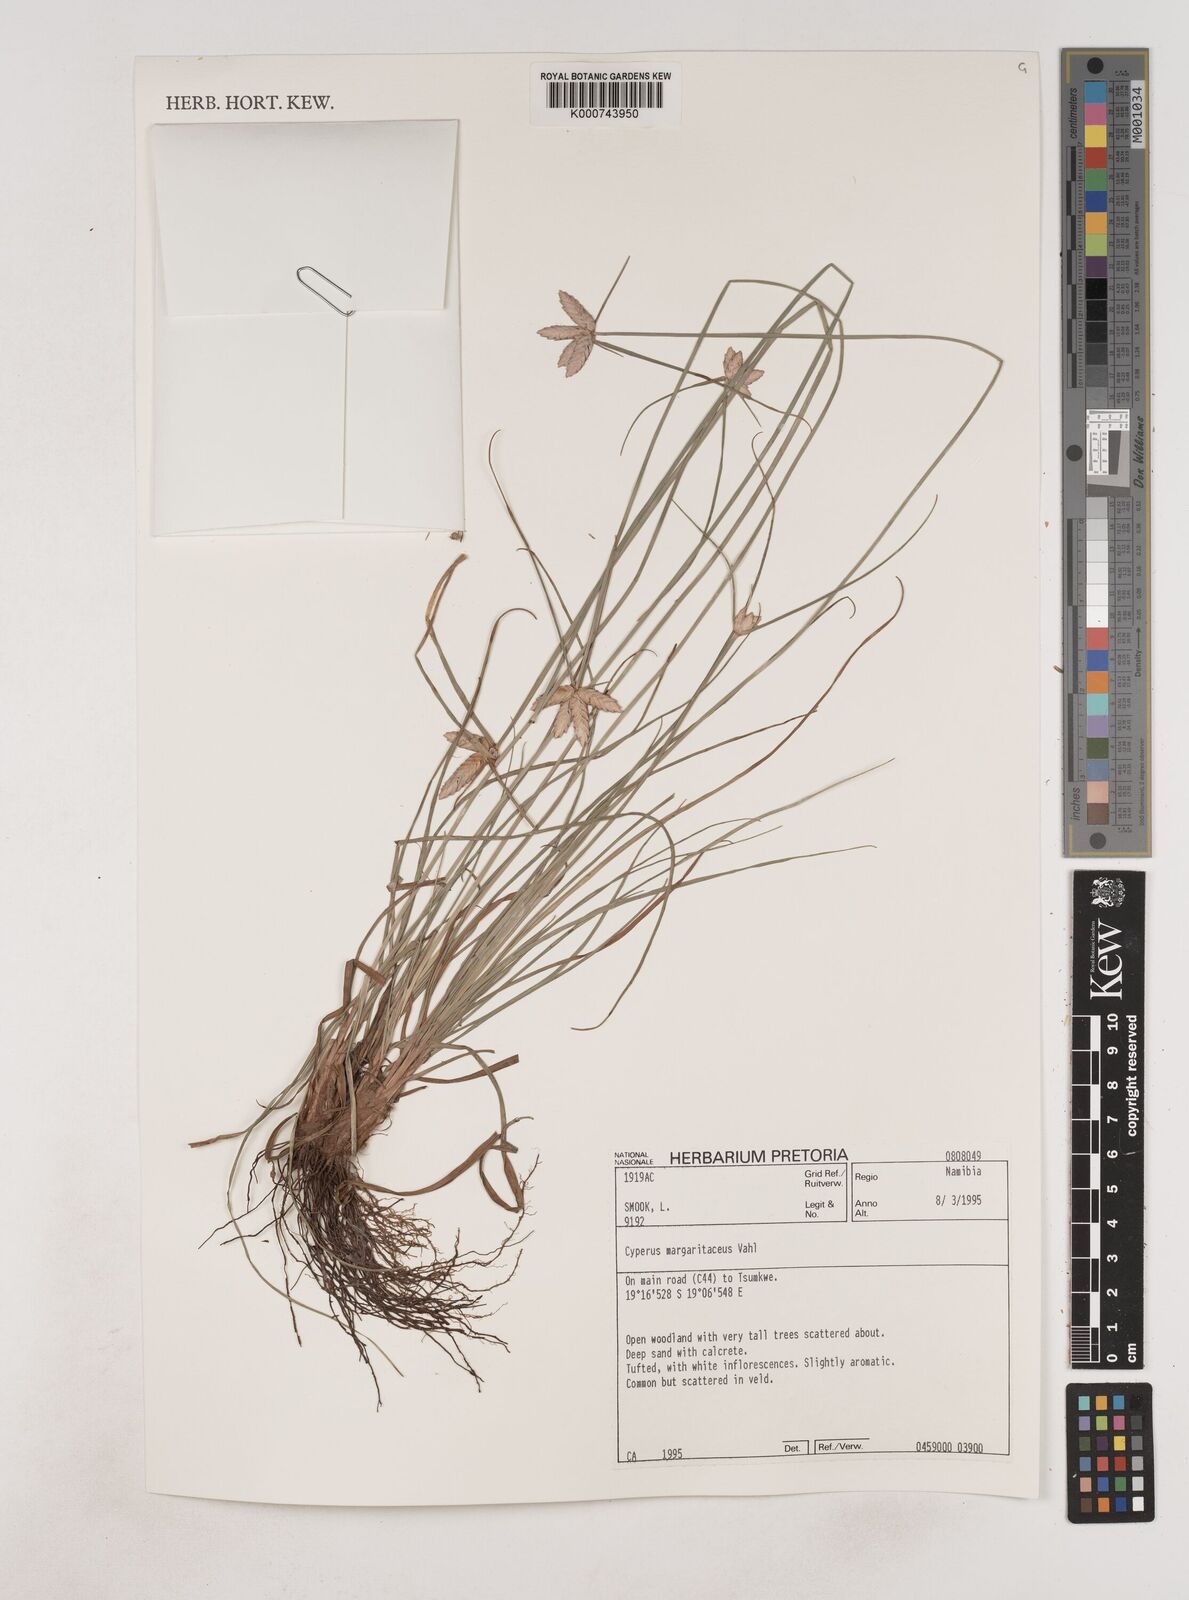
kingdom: Plantae
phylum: Tracheophyta
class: Liliopsida
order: Poales
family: Cyperaceae
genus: Cyperus
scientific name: Cyperus margaritaceus
